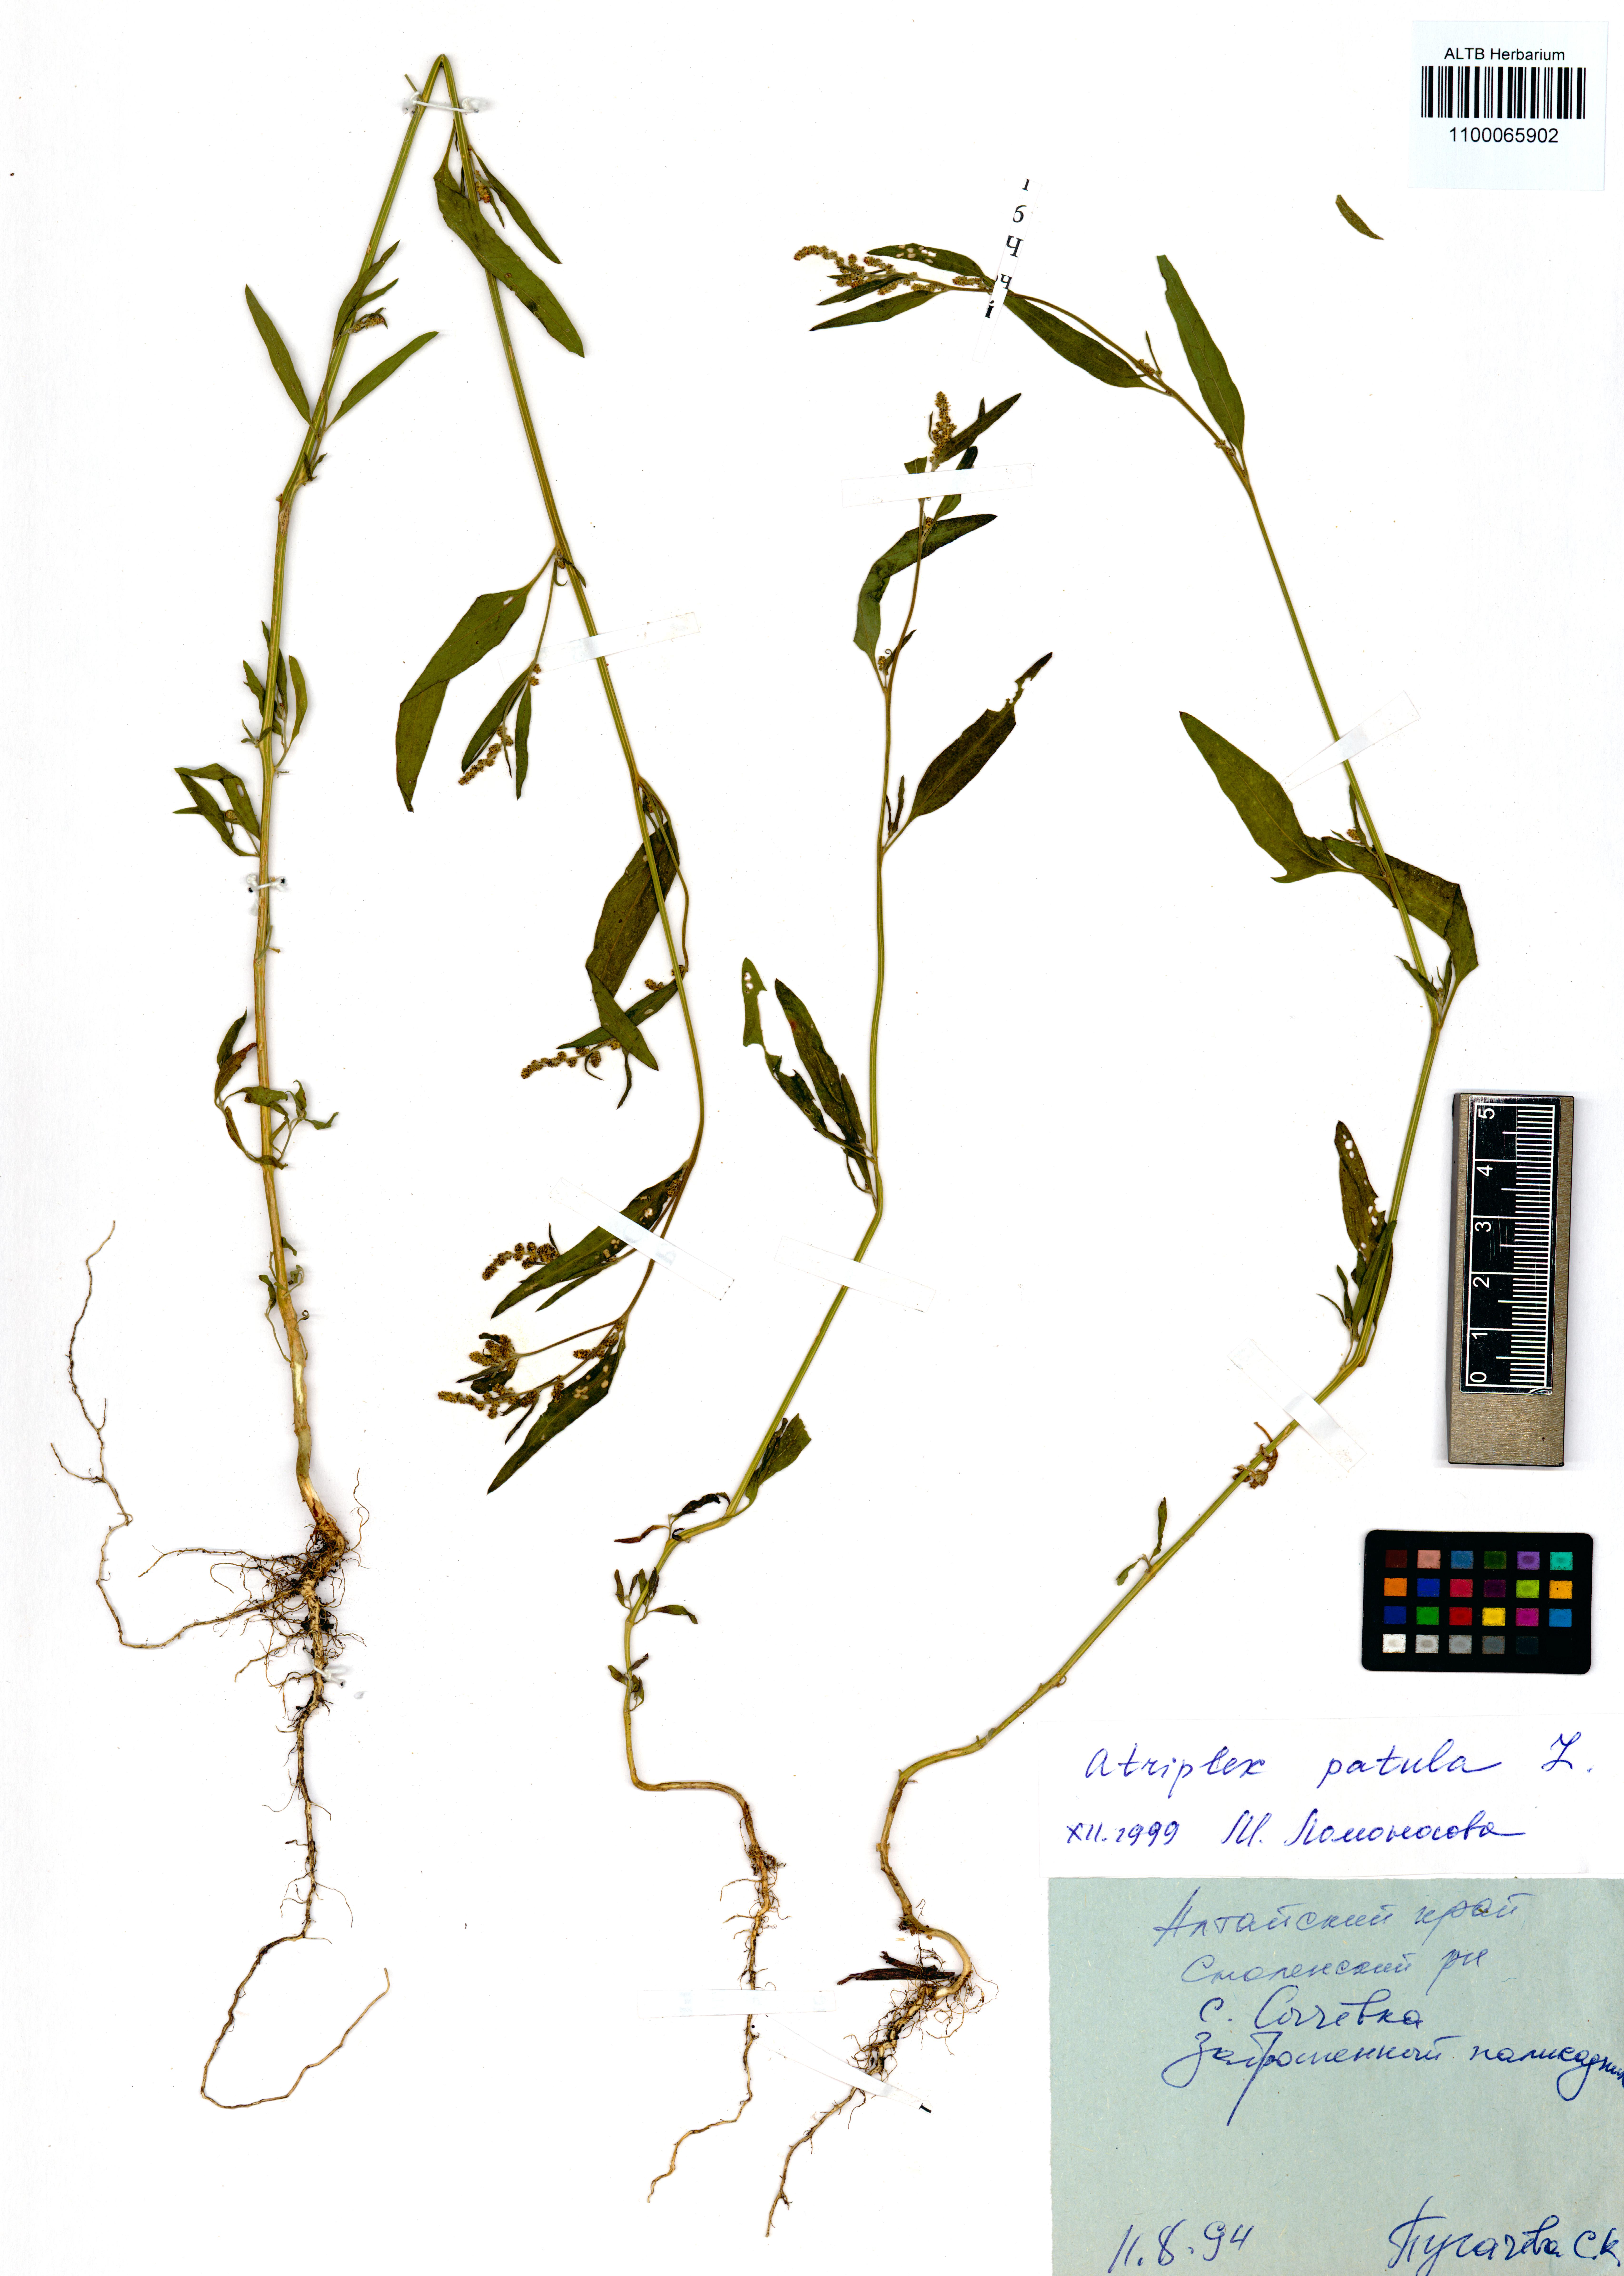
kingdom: Plantae
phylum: Tracheophyta
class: Magnoliopsida
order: Caryophyllales
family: Amaranthaceae
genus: Atriplex
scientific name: Atriplex patula
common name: Common orache
